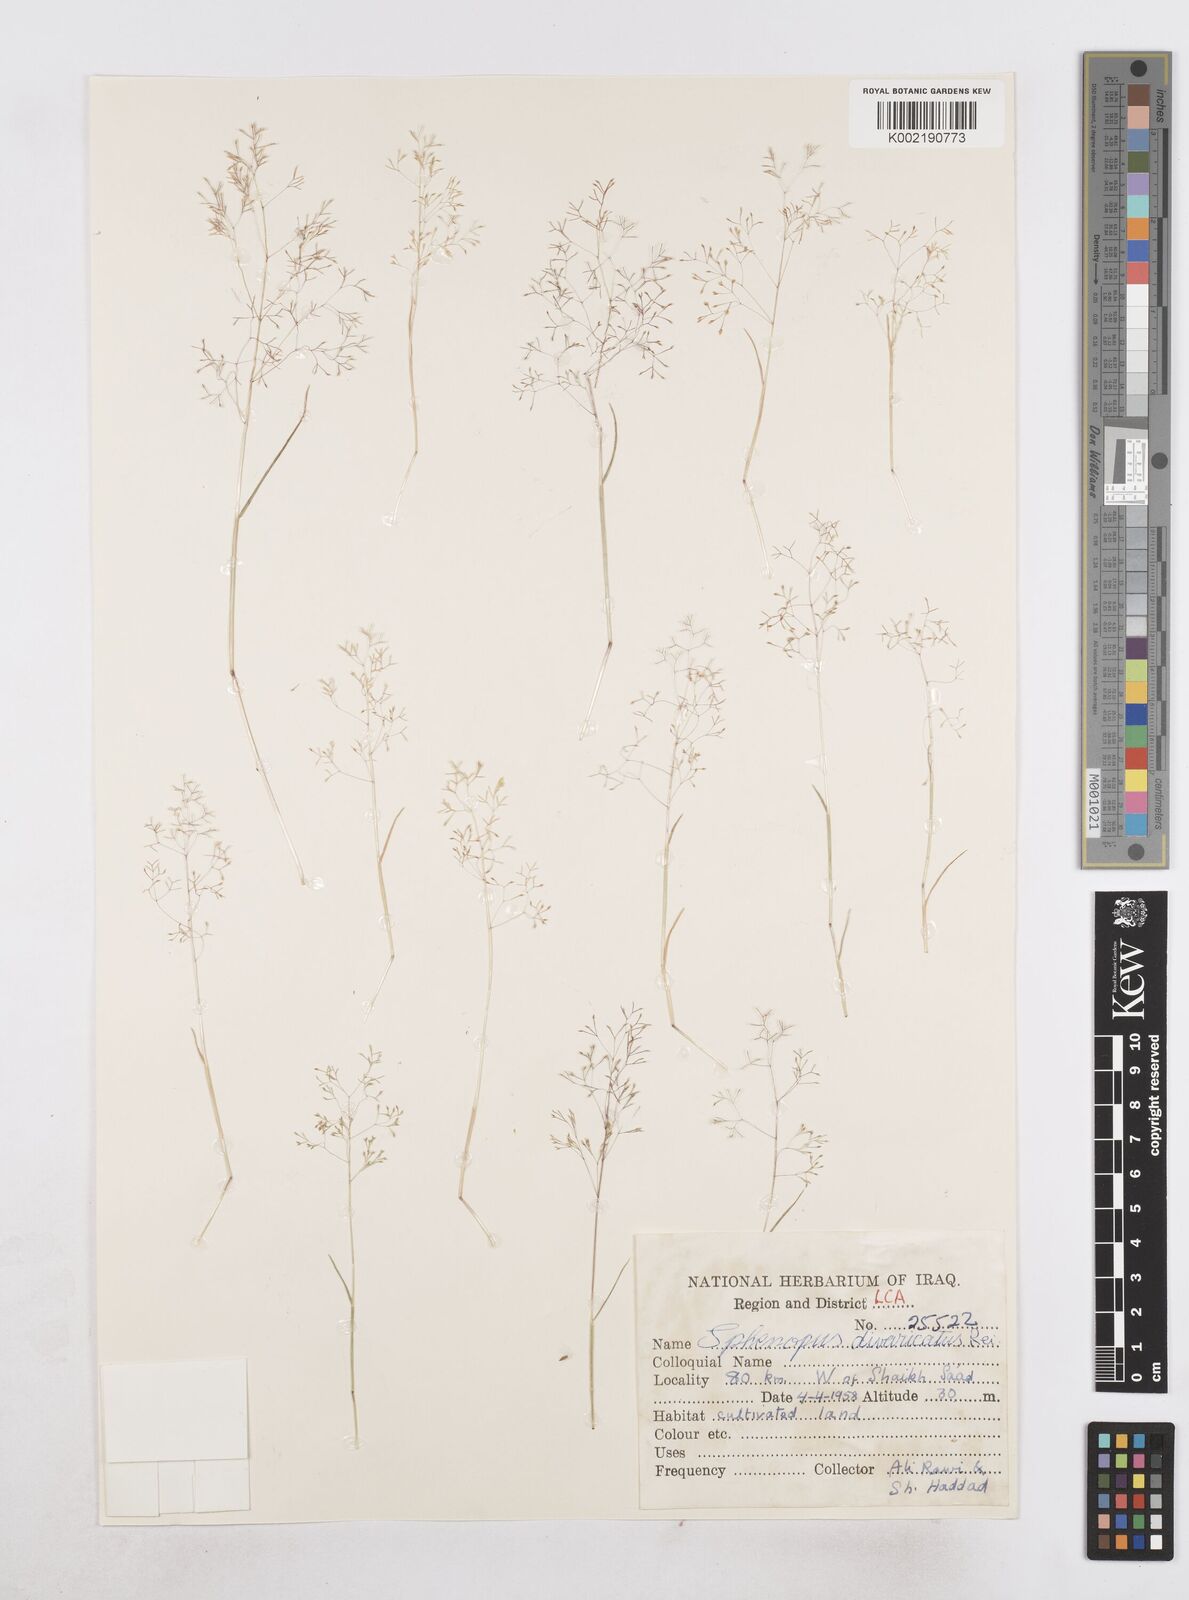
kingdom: Plantae
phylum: Tracheophyta
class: Liliopsida
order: Poales
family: Poaceae
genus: Sphenopus
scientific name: Sphenopus divaricatus
